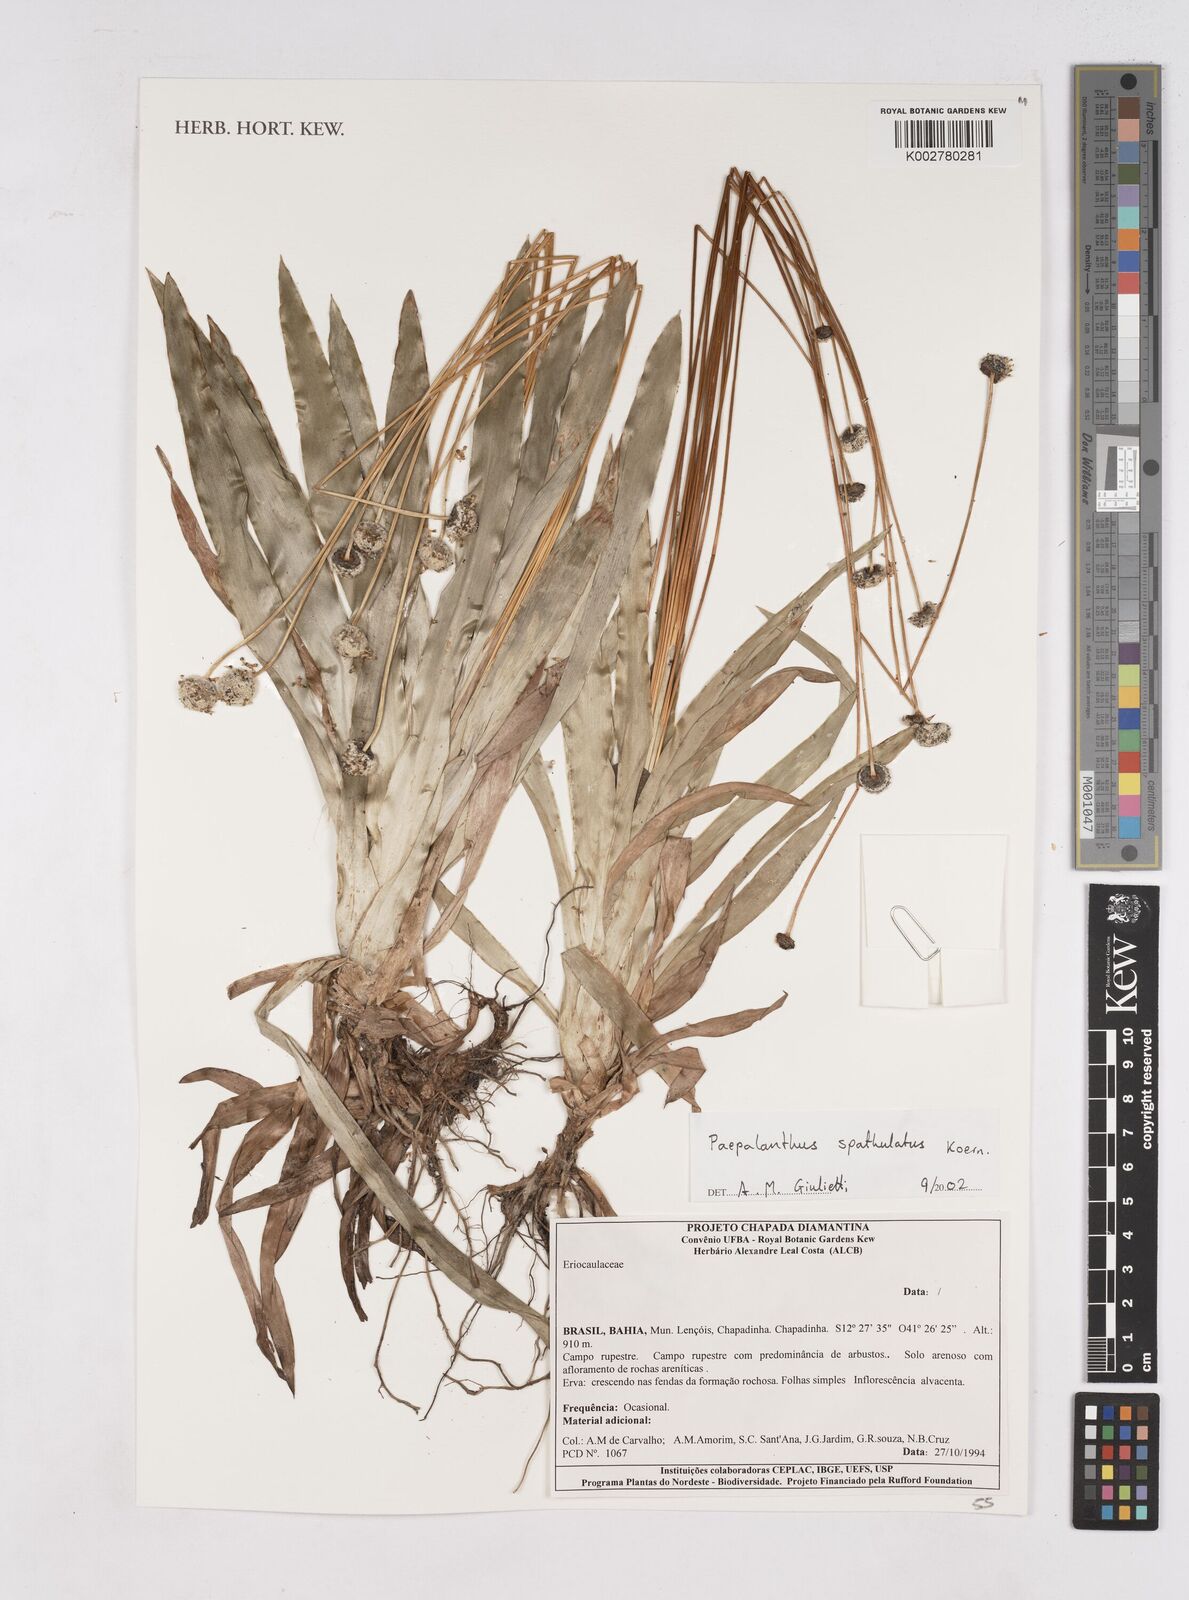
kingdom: Plantae
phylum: Tracheophyta
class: Liliopsida
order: Poales
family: Eriocaulaceae
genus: Paepalanthus
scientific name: Paepalanthus spathulatus
